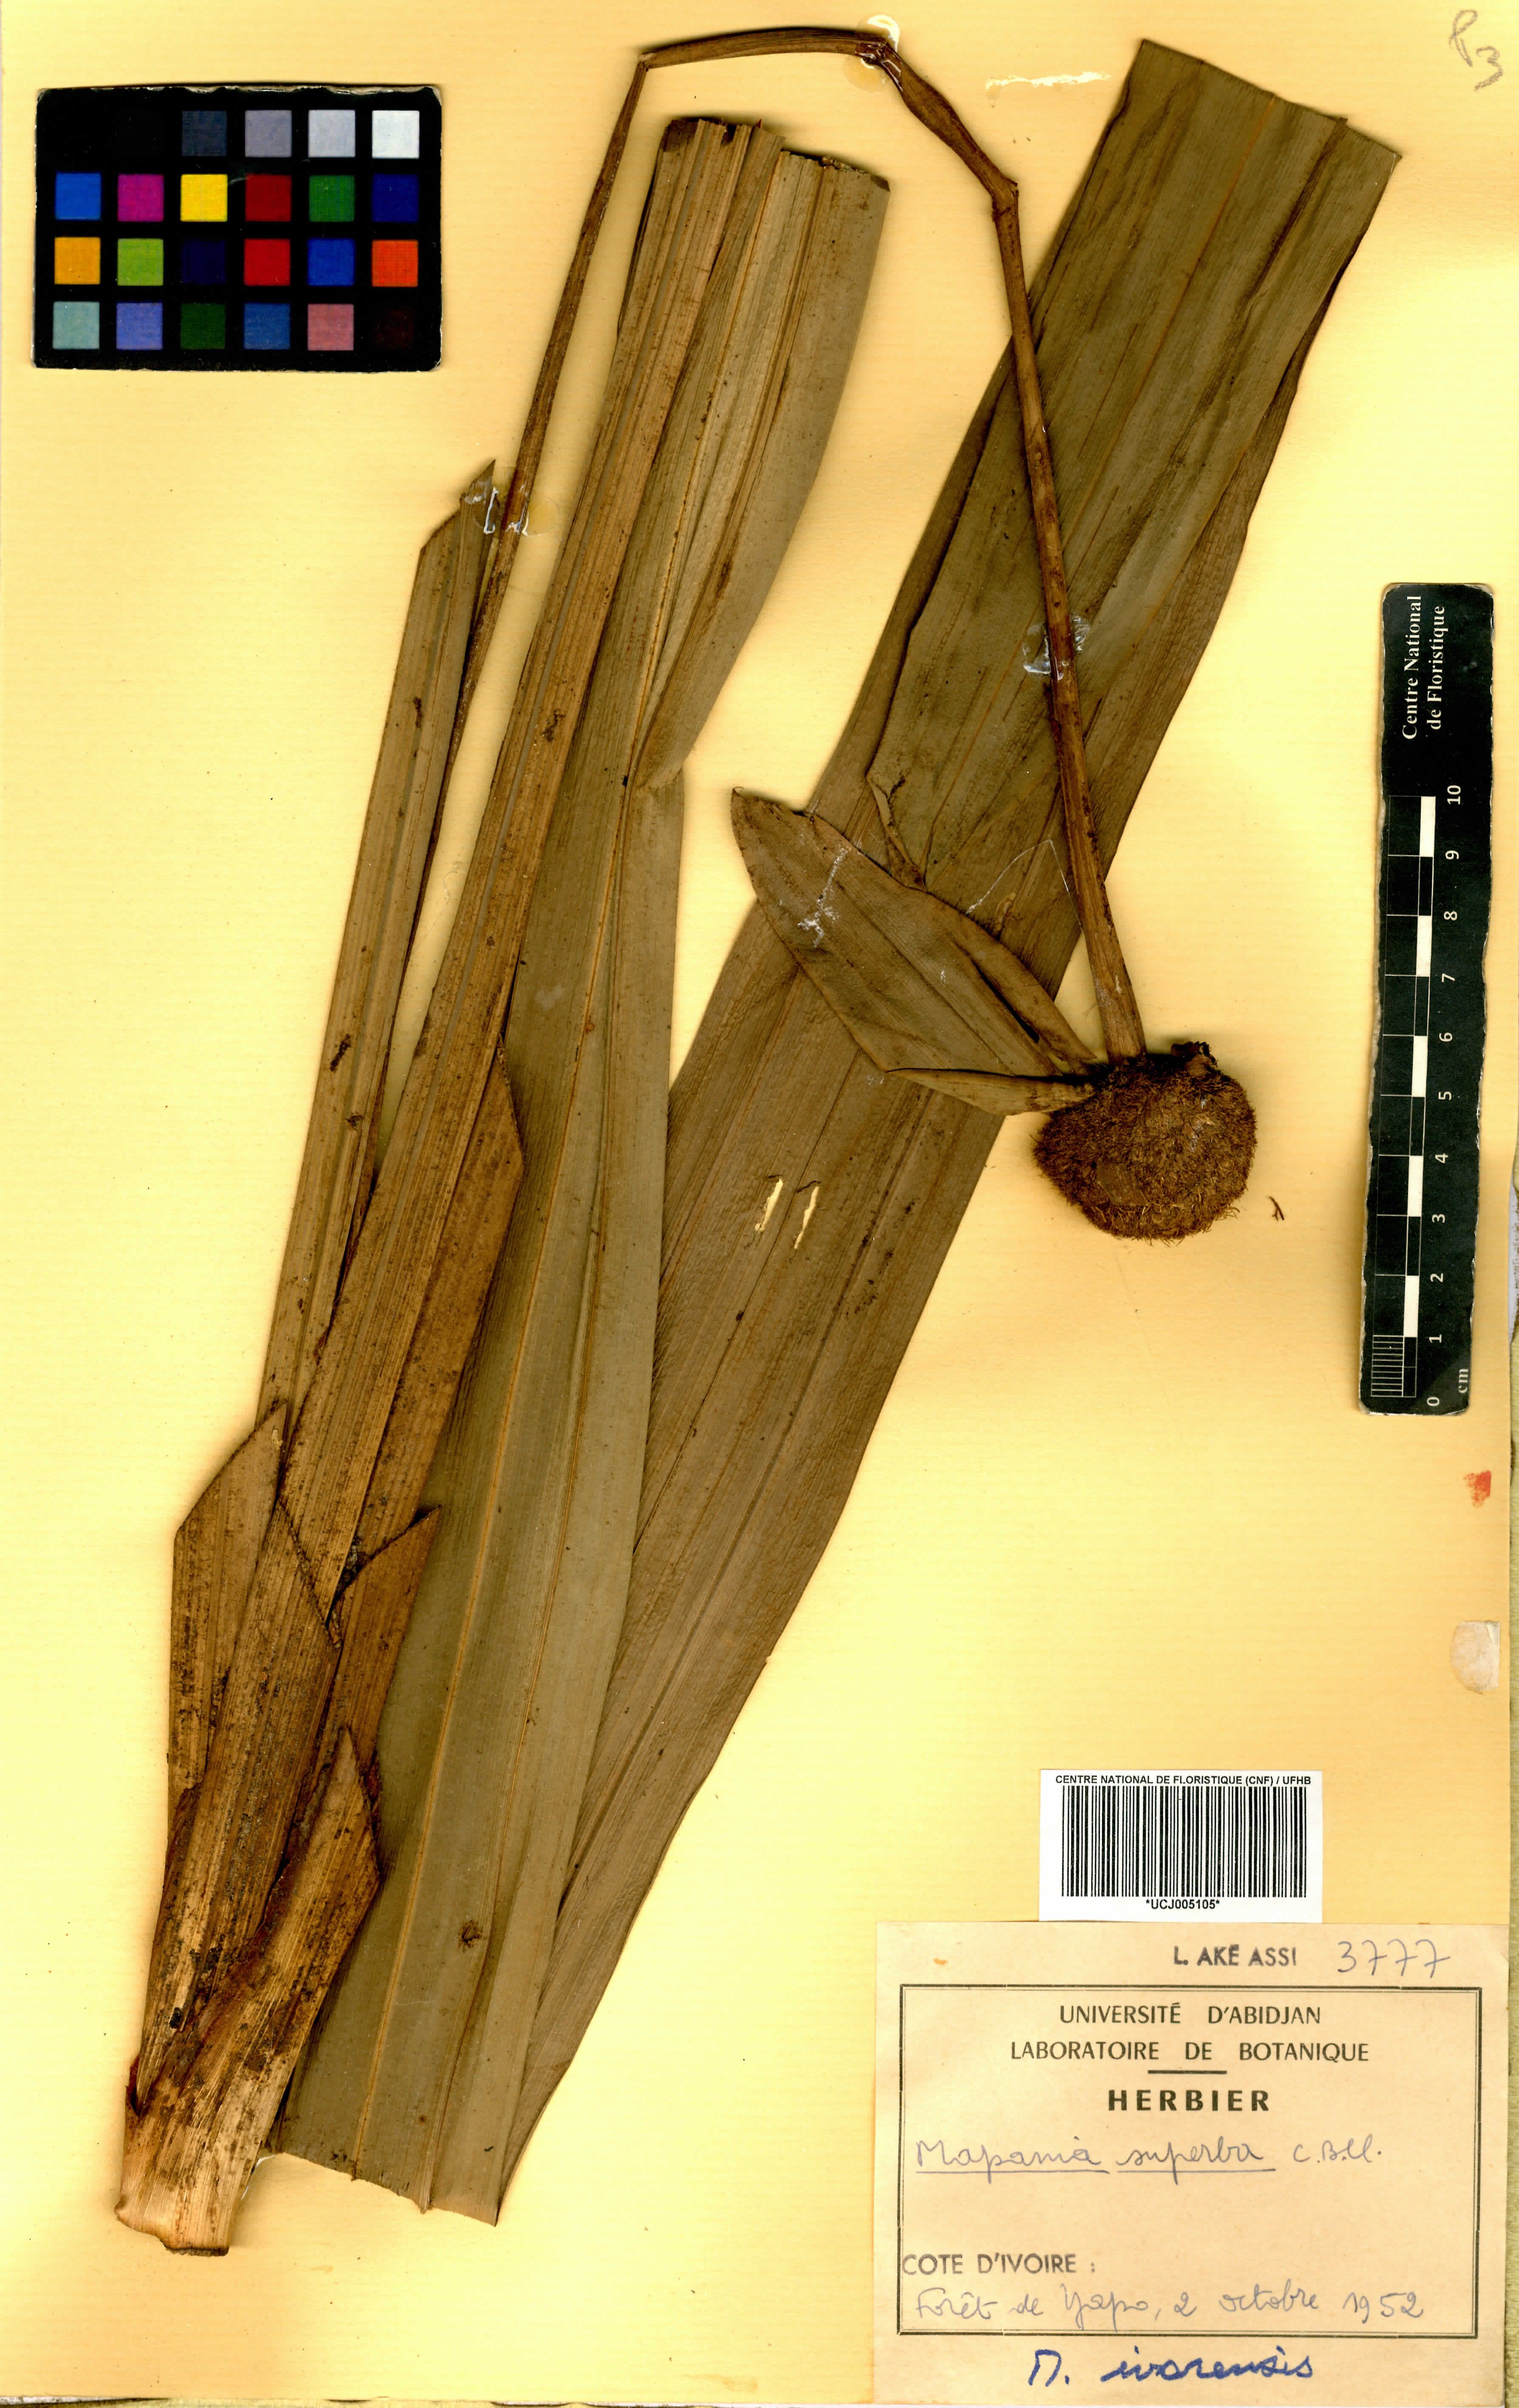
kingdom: Plantae
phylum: Tracheophyta
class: Liliopsida
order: Poales
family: Cyperaceae
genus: Mapania
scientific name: Mapania macrantha
